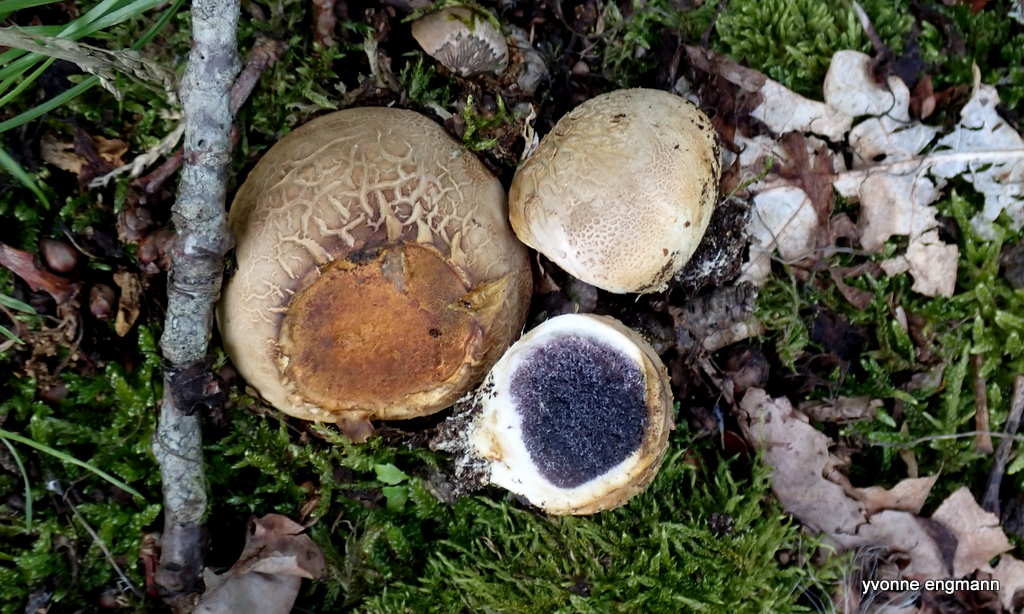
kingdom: Fungi
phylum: Basidiomycota
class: Agaricomycetes
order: Boletales
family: Sclerodermataceae
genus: Scleroderma
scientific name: Scleroderma
